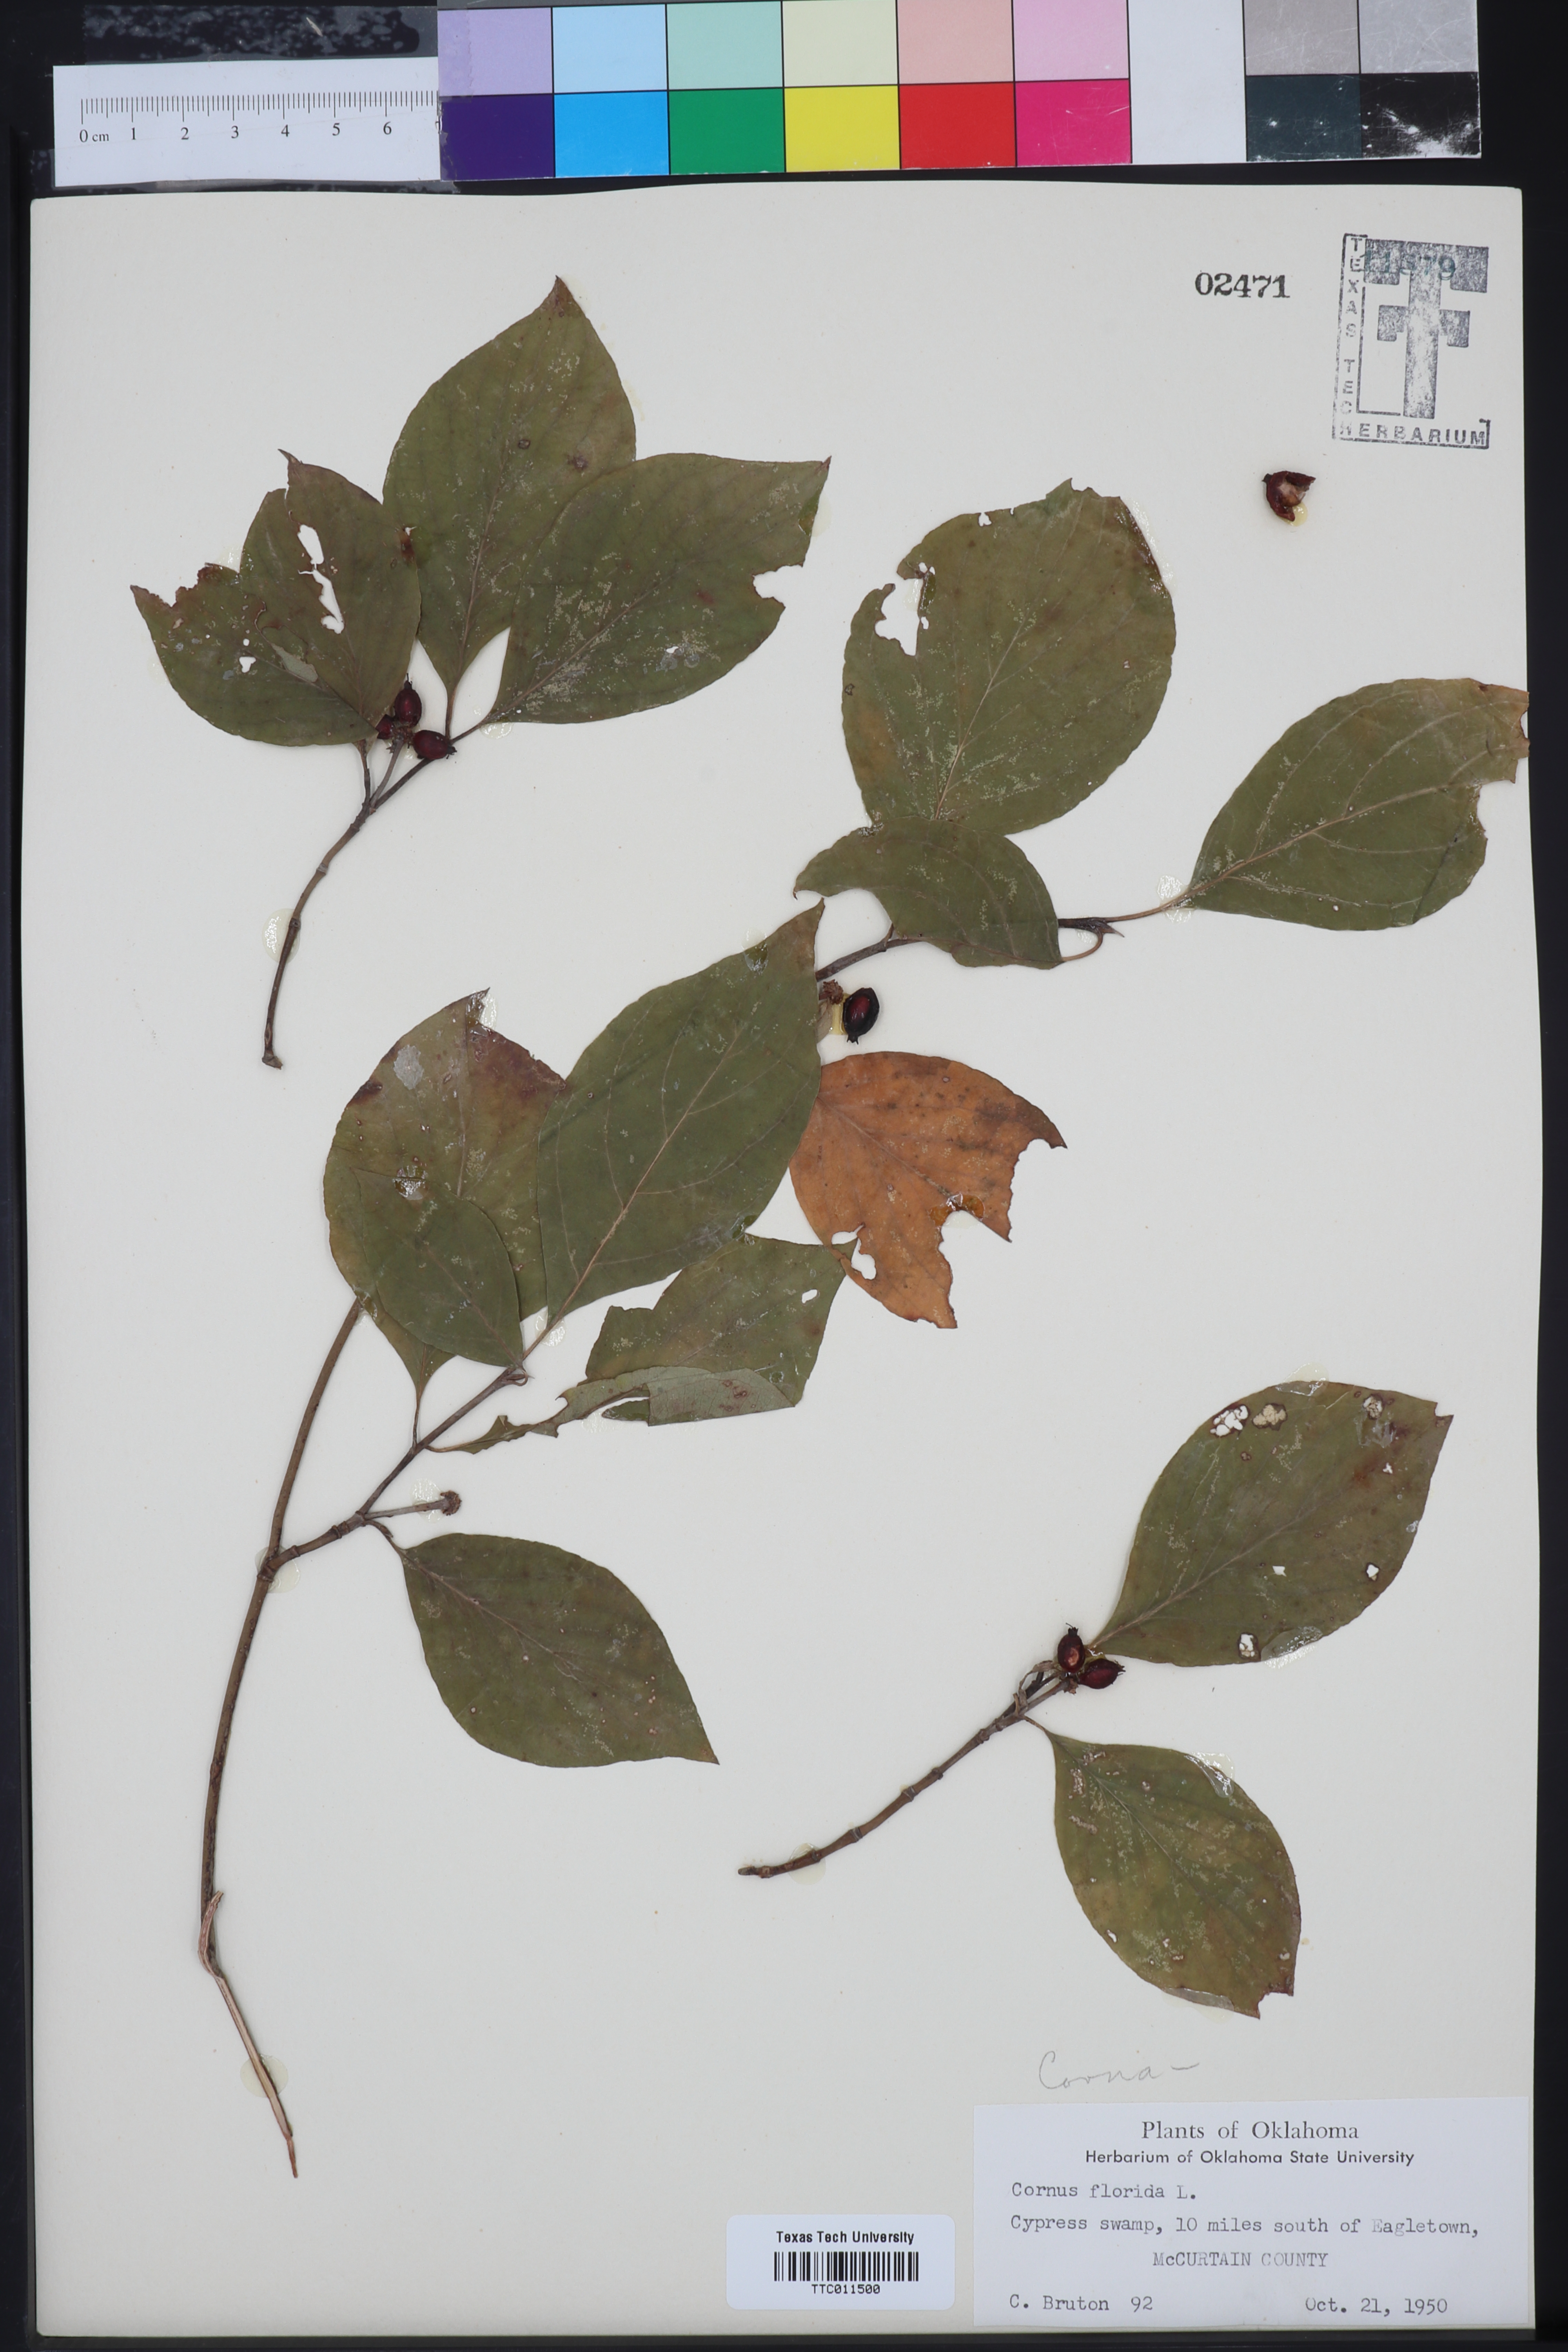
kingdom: Plantae
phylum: Tracheophyta
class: Magnoliopsida
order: Cornales
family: Cornaceae
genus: Cornus
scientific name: Cornus florida
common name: Flowering dogwood
